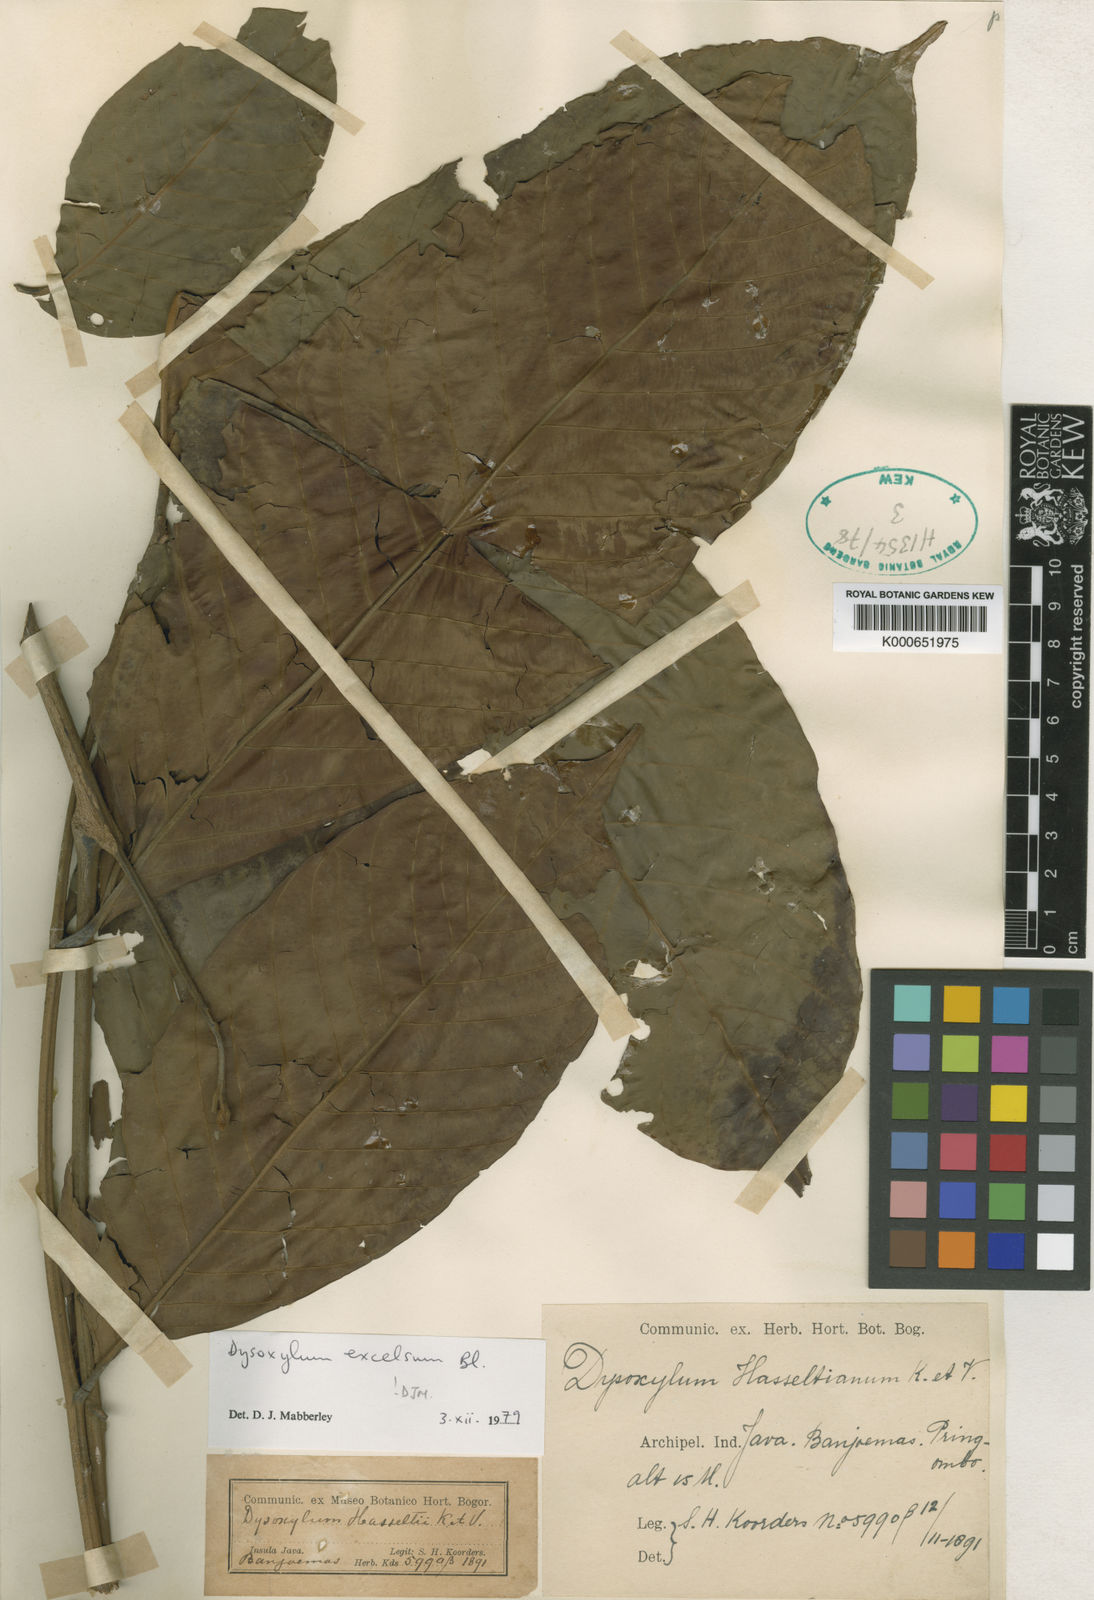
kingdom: Plantae
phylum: Tracheophyta
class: Magnoliopsida
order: Sapindales
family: Meliaceae
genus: Dysoxylum
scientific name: Dysoxylum excelsum
